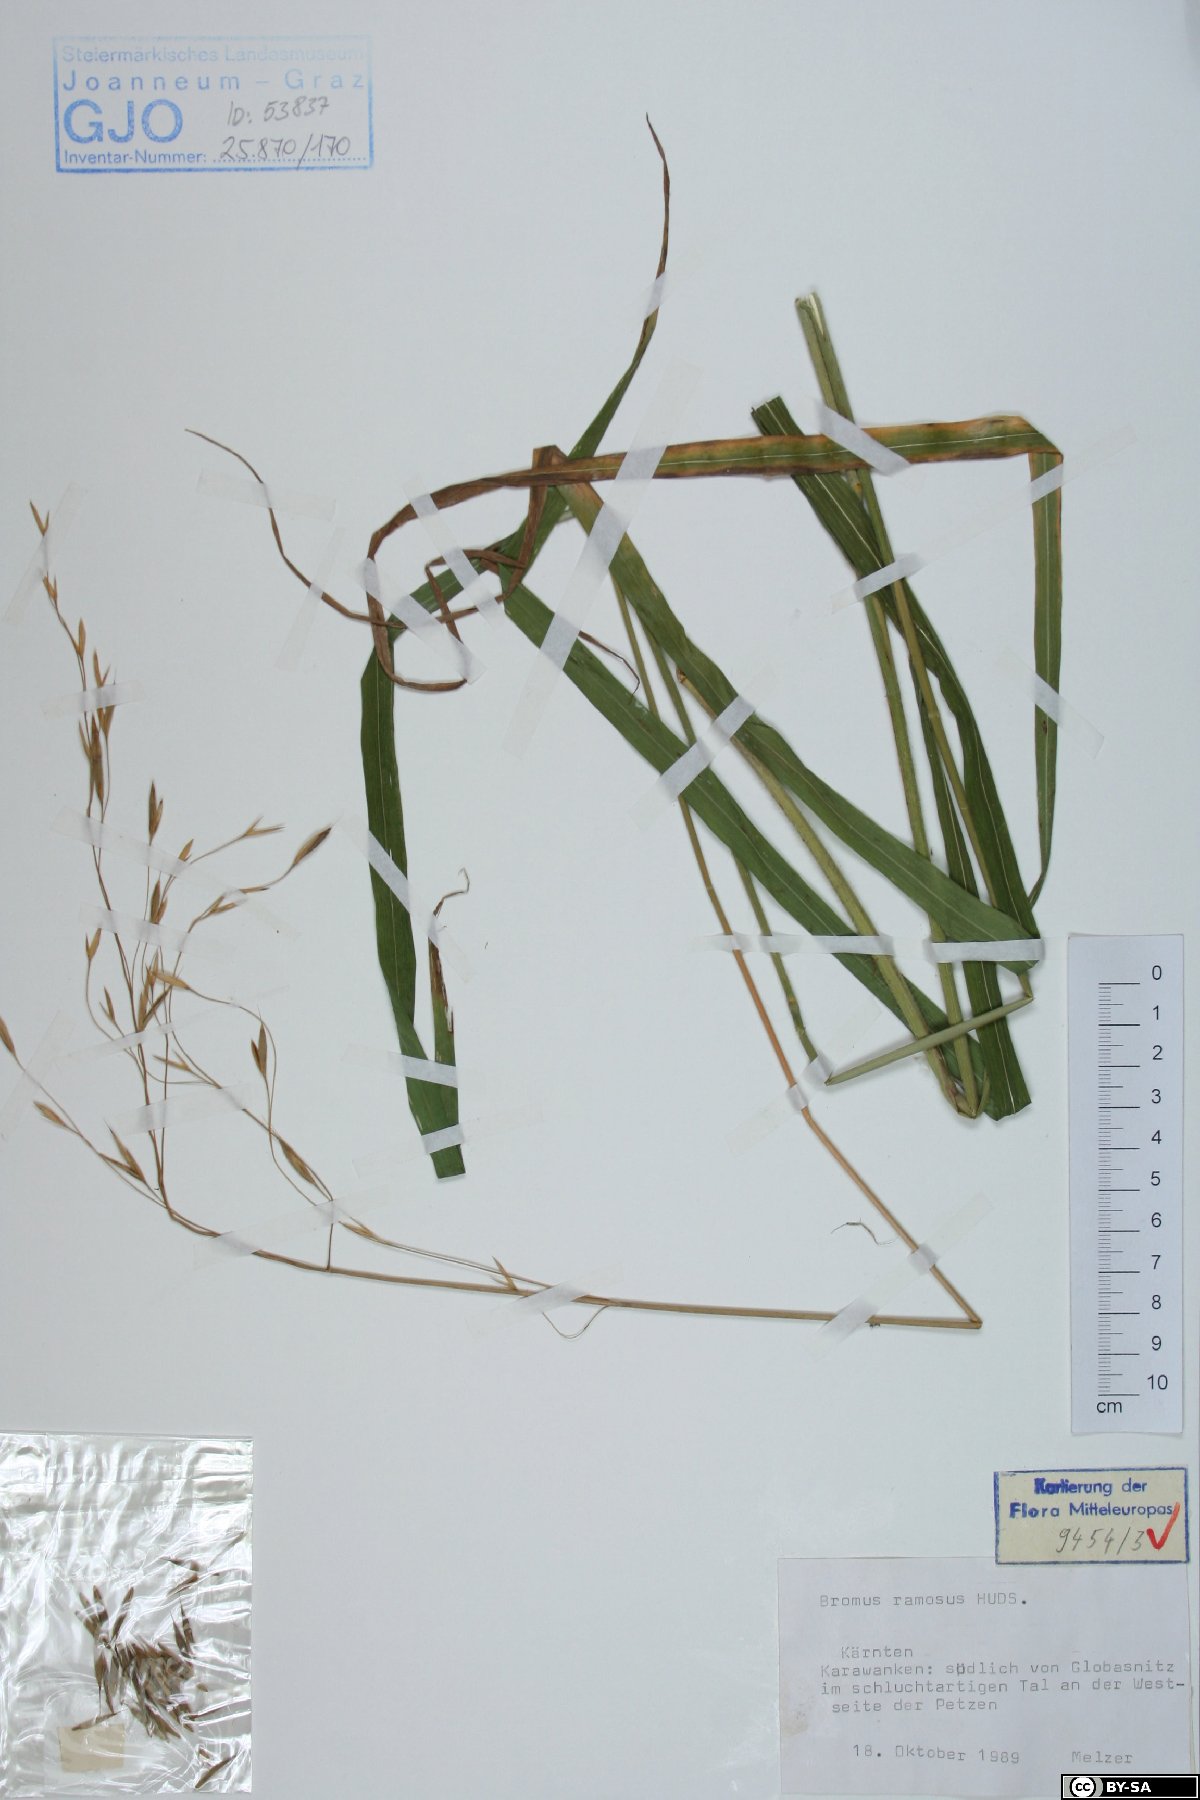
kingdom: Plantae
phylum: Tracheophyta
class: Liliopsida
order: Poales
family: Poaceae
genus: Bromus
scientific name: Bromus ramosus
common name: Hairy brome
